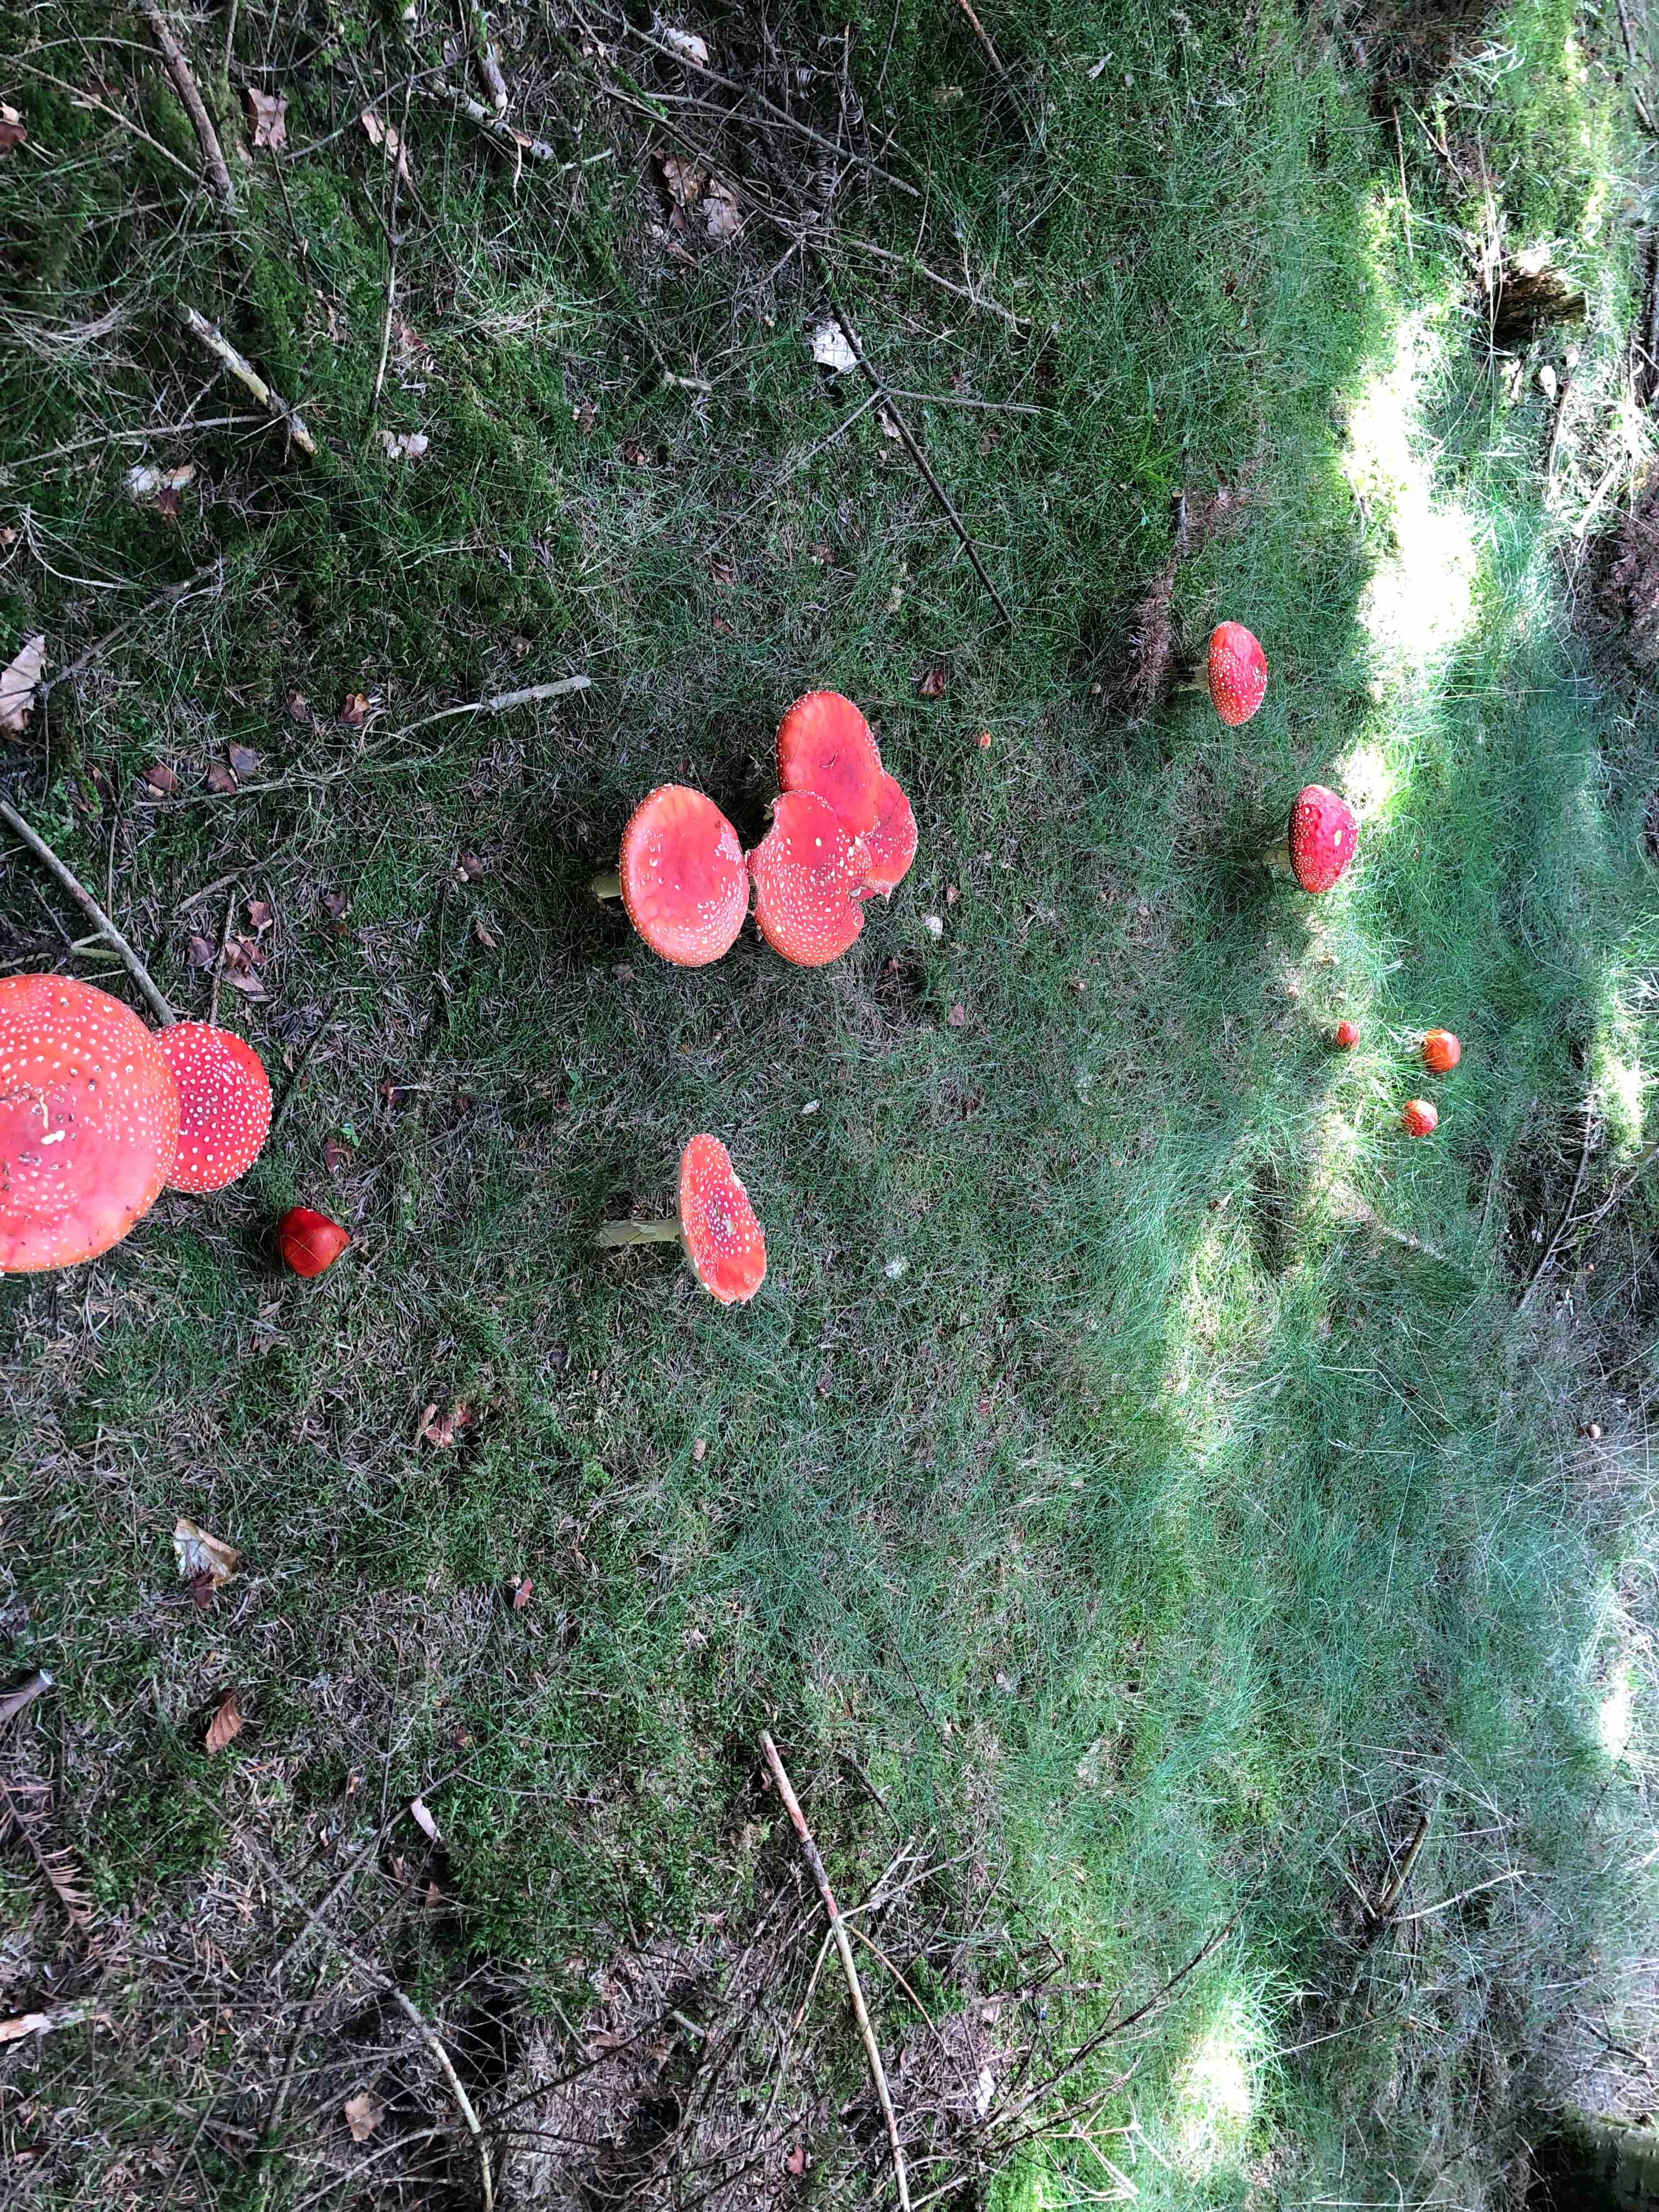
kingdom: Fungi
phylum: Basidiomycota
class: Agaricomycetes
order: Agaricales
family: Amanitaceae
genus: Amanita
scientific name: Amanita muscaria
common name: rød fluesvamp
